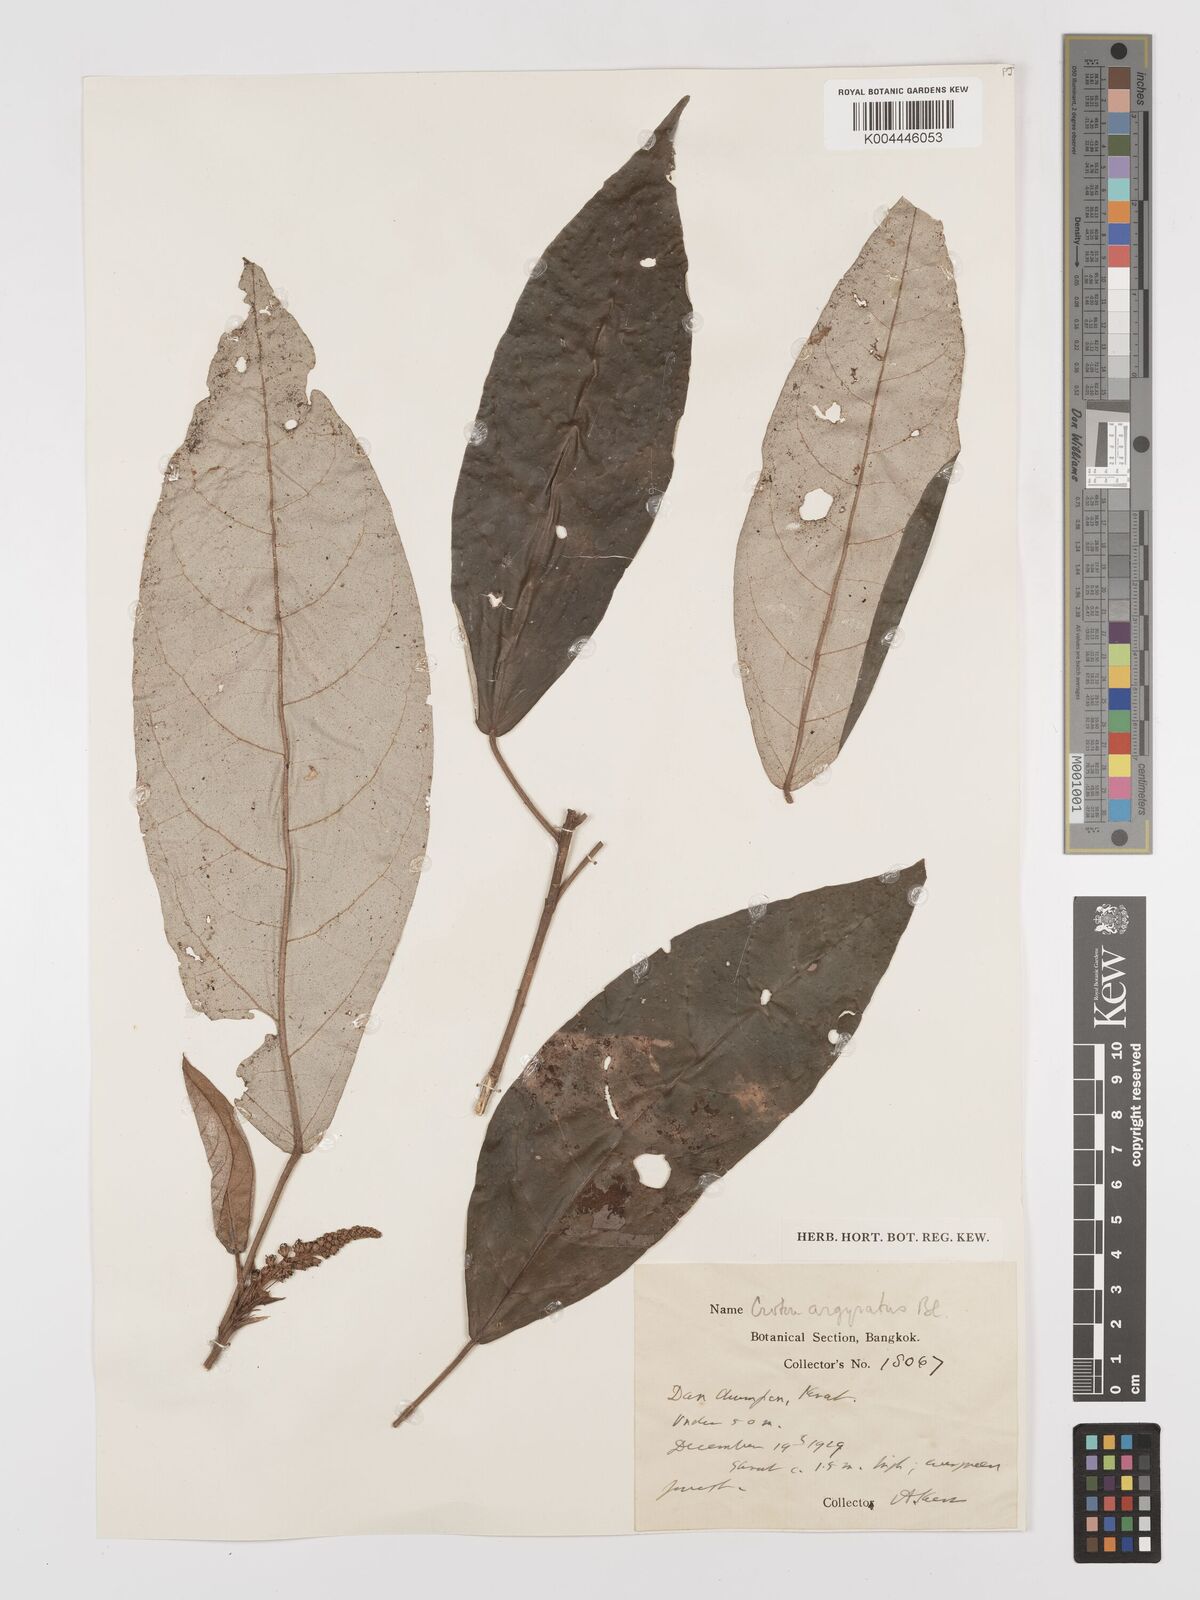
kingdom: Plantae
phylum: Tracheophyta
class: Magnoliopsida
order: Malpighiales
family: Euphorbiaceae
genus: Croton
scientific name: Croton argyratus
